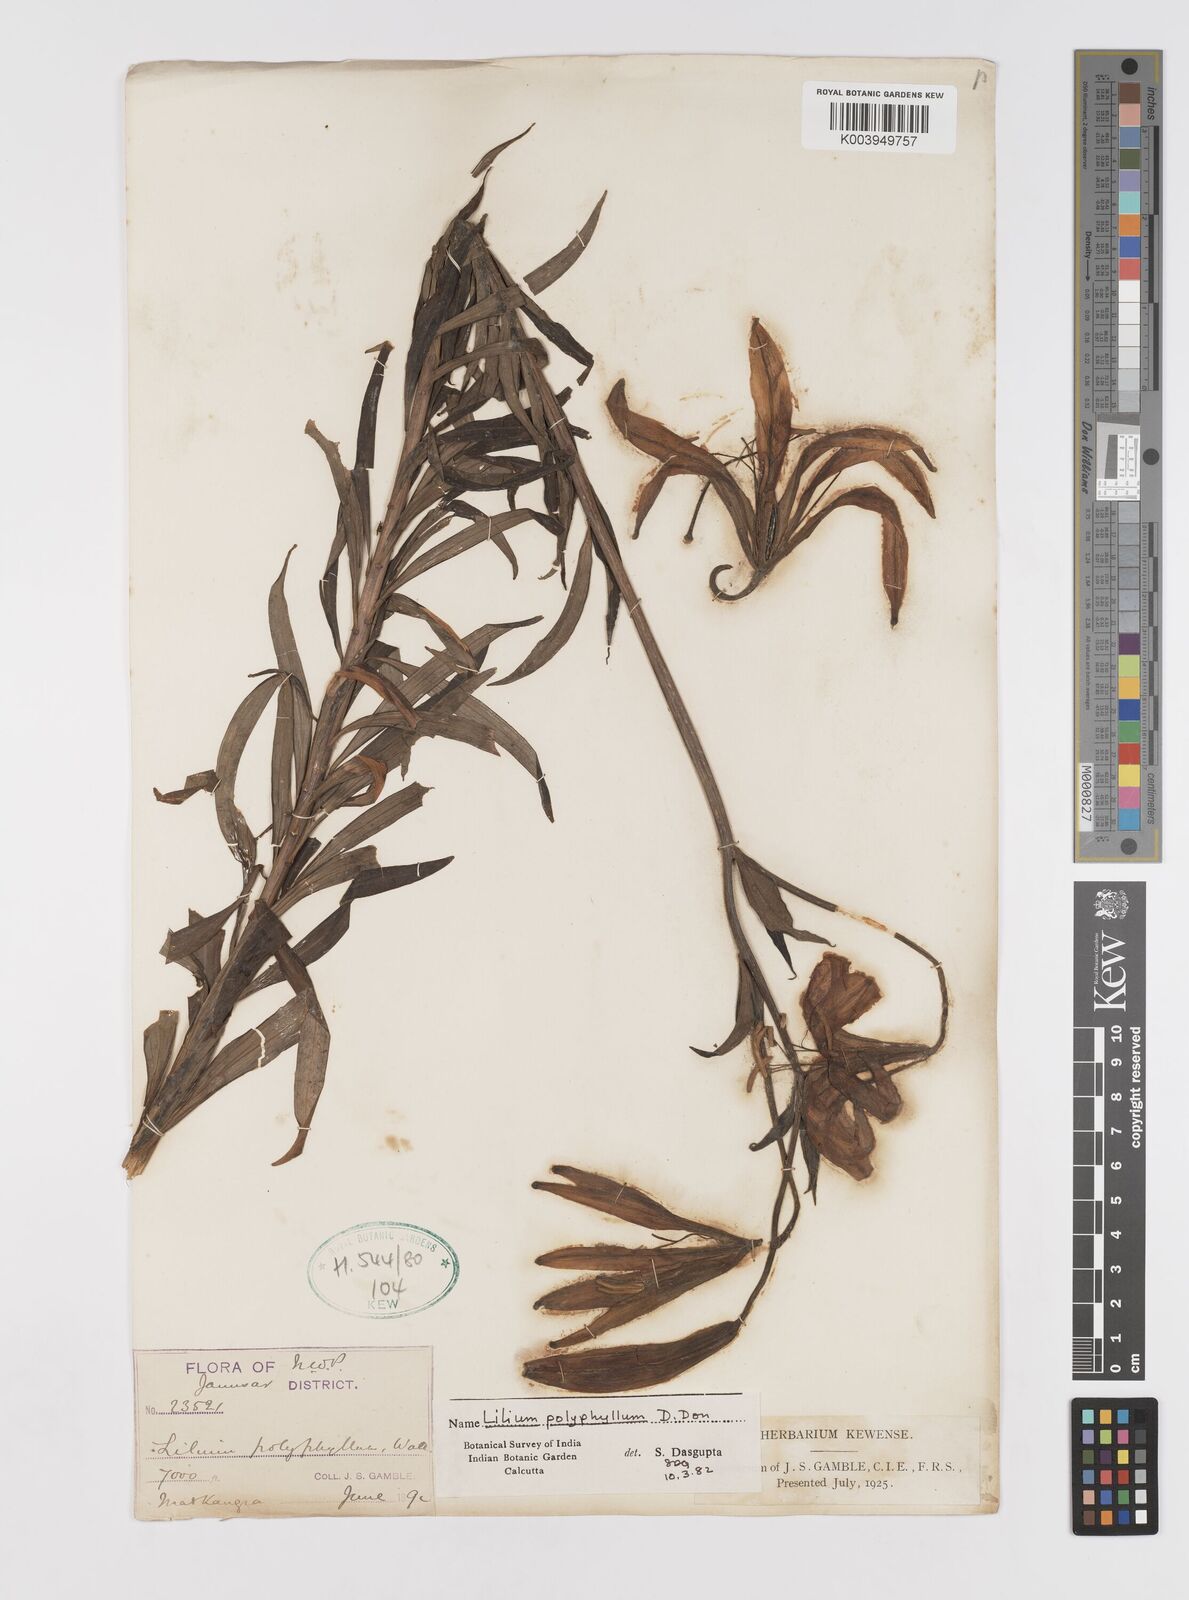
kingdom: Plantae
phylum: Tracheophyta
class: Liliopsida
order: Liliales
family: Liliaceae
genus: Lilium
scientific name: Lilium polyphyllum
